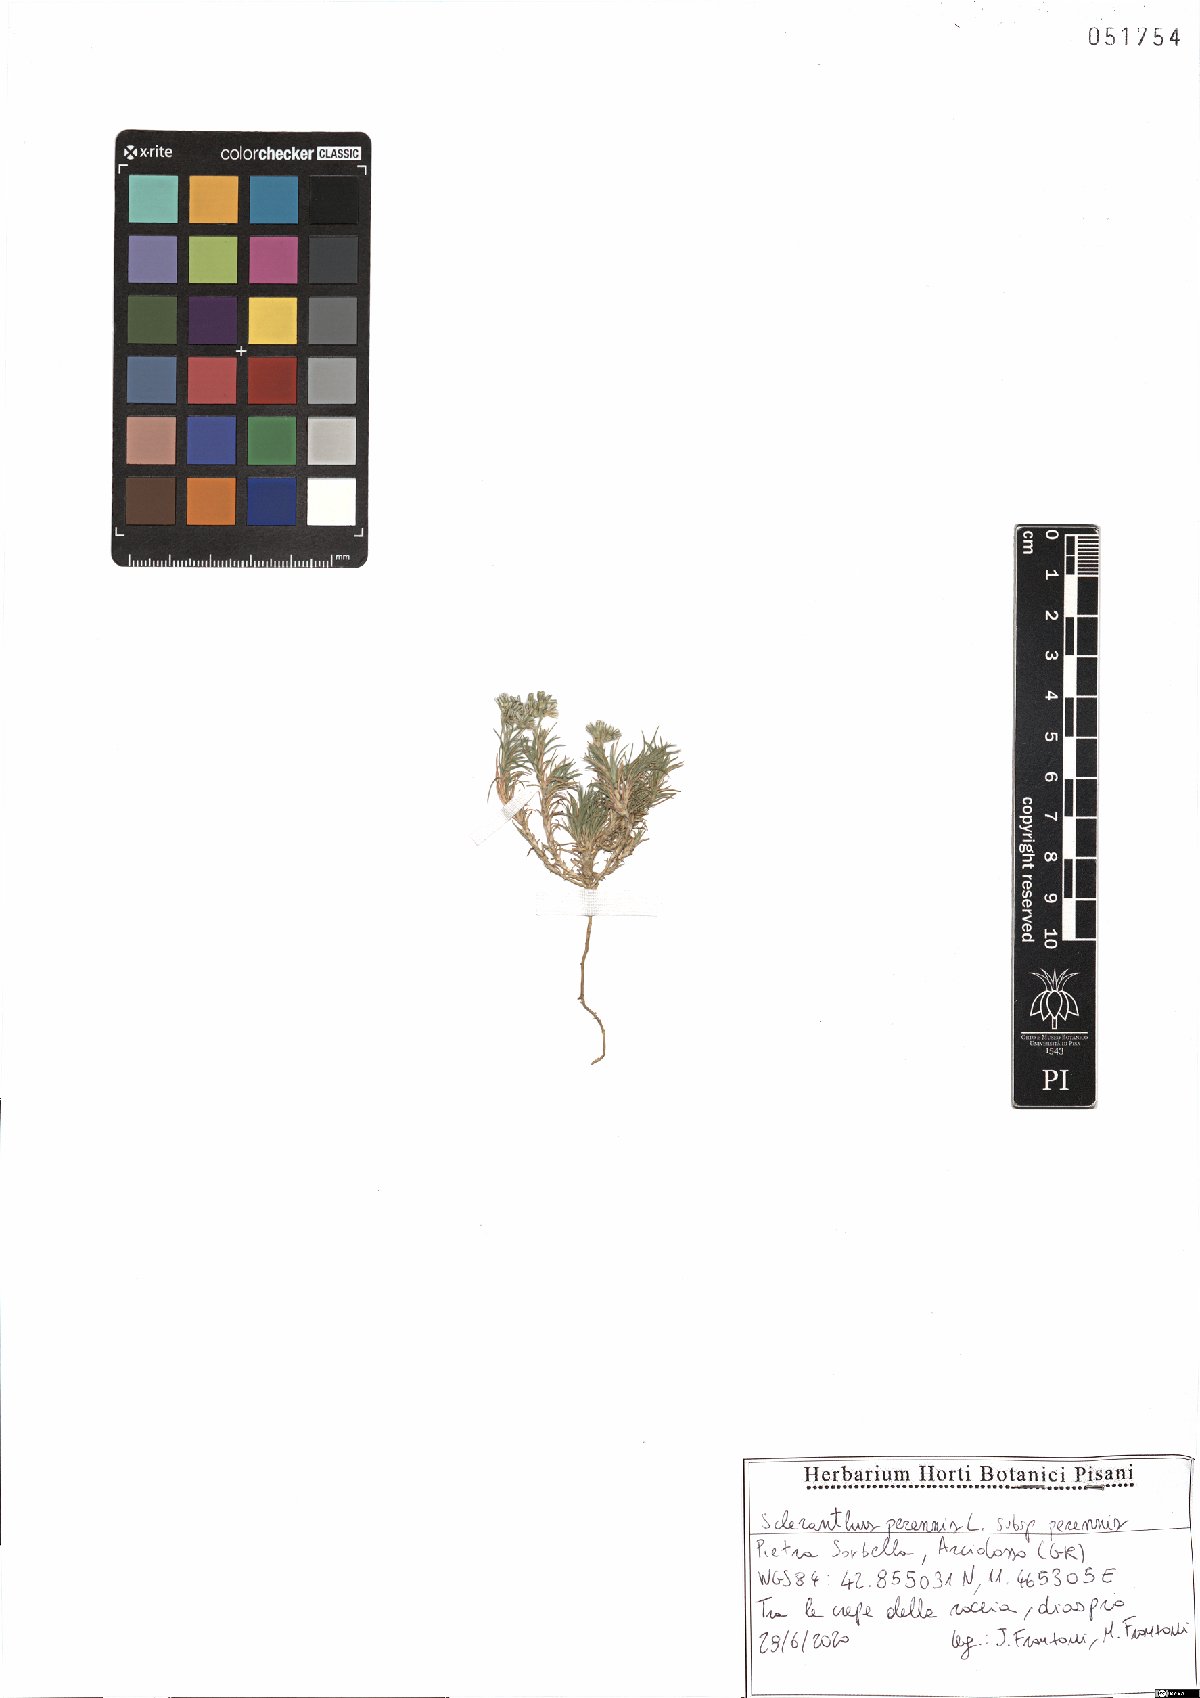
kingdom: Plantae
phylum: Tracheophyta
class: Magnoliopsida
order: Caryophyllales
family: Caryophyllaceae
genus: Scleranthus
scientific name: Scleranthus perennis
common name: Perennial knawel
